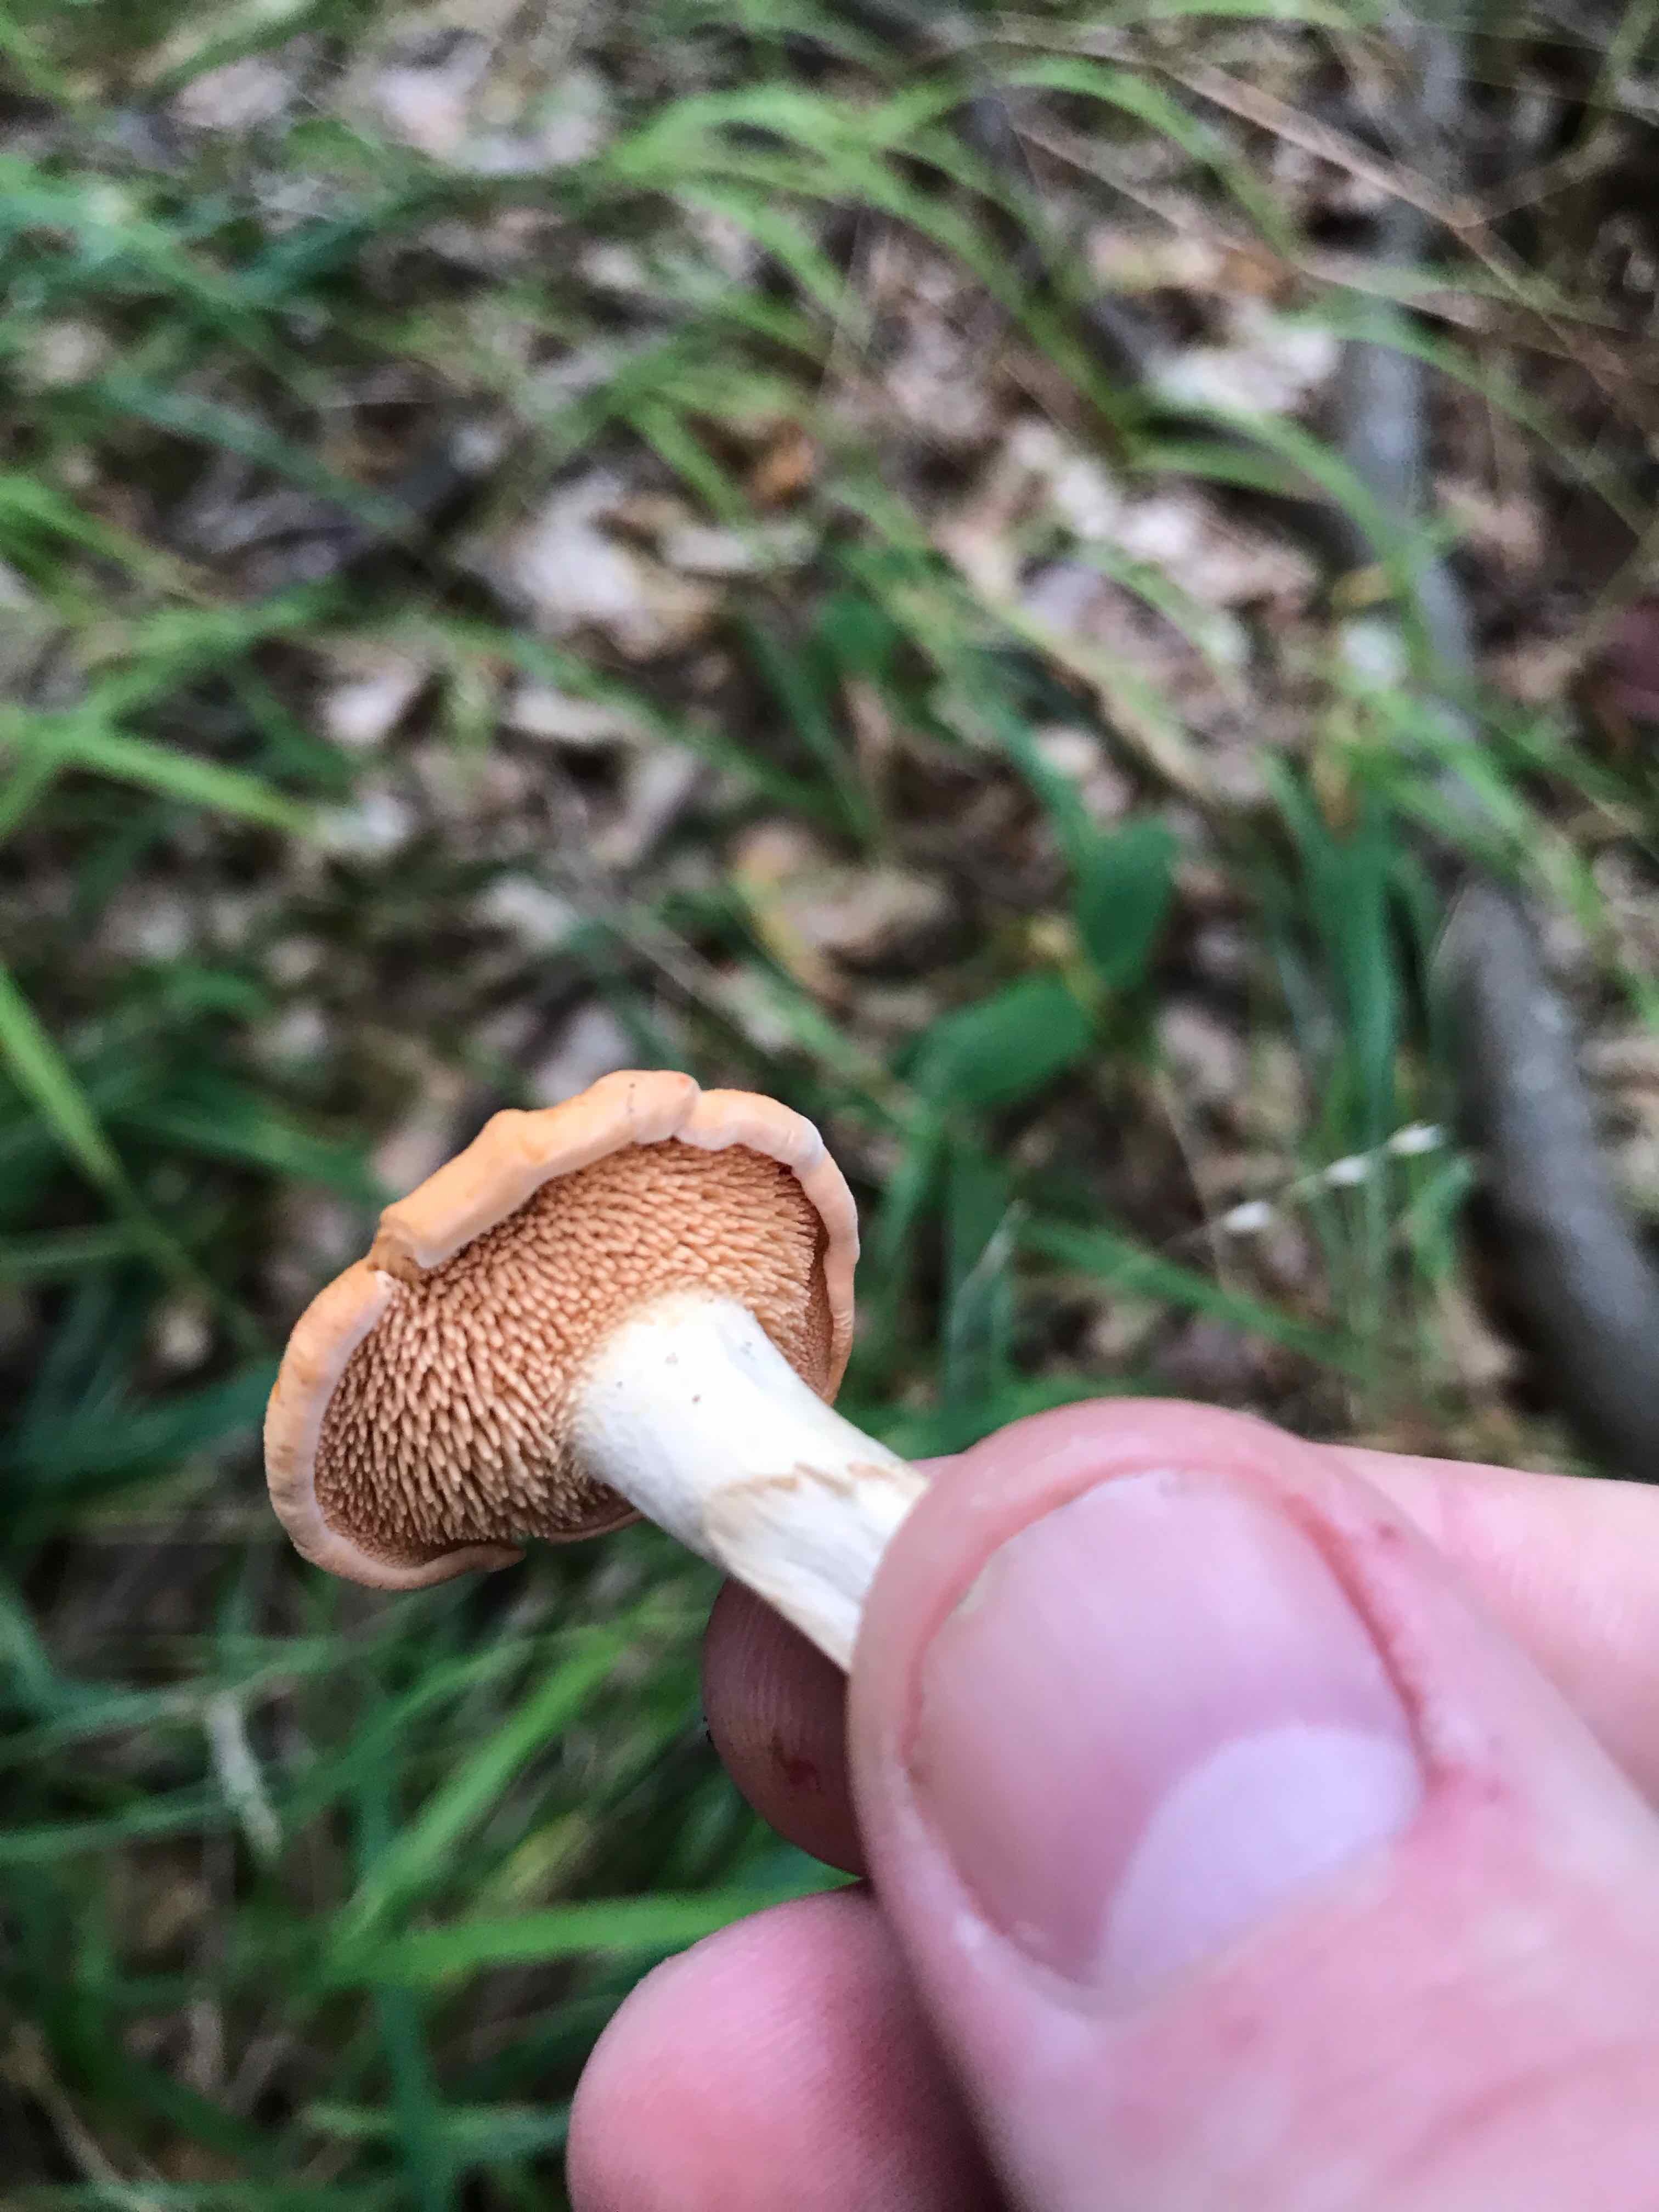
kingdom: Fungi
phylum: Basidiomycota
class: Agaricomycetes
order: Cantharellales
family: Hydnaceae
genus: Hydnum
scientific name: Hydnum rufescens
